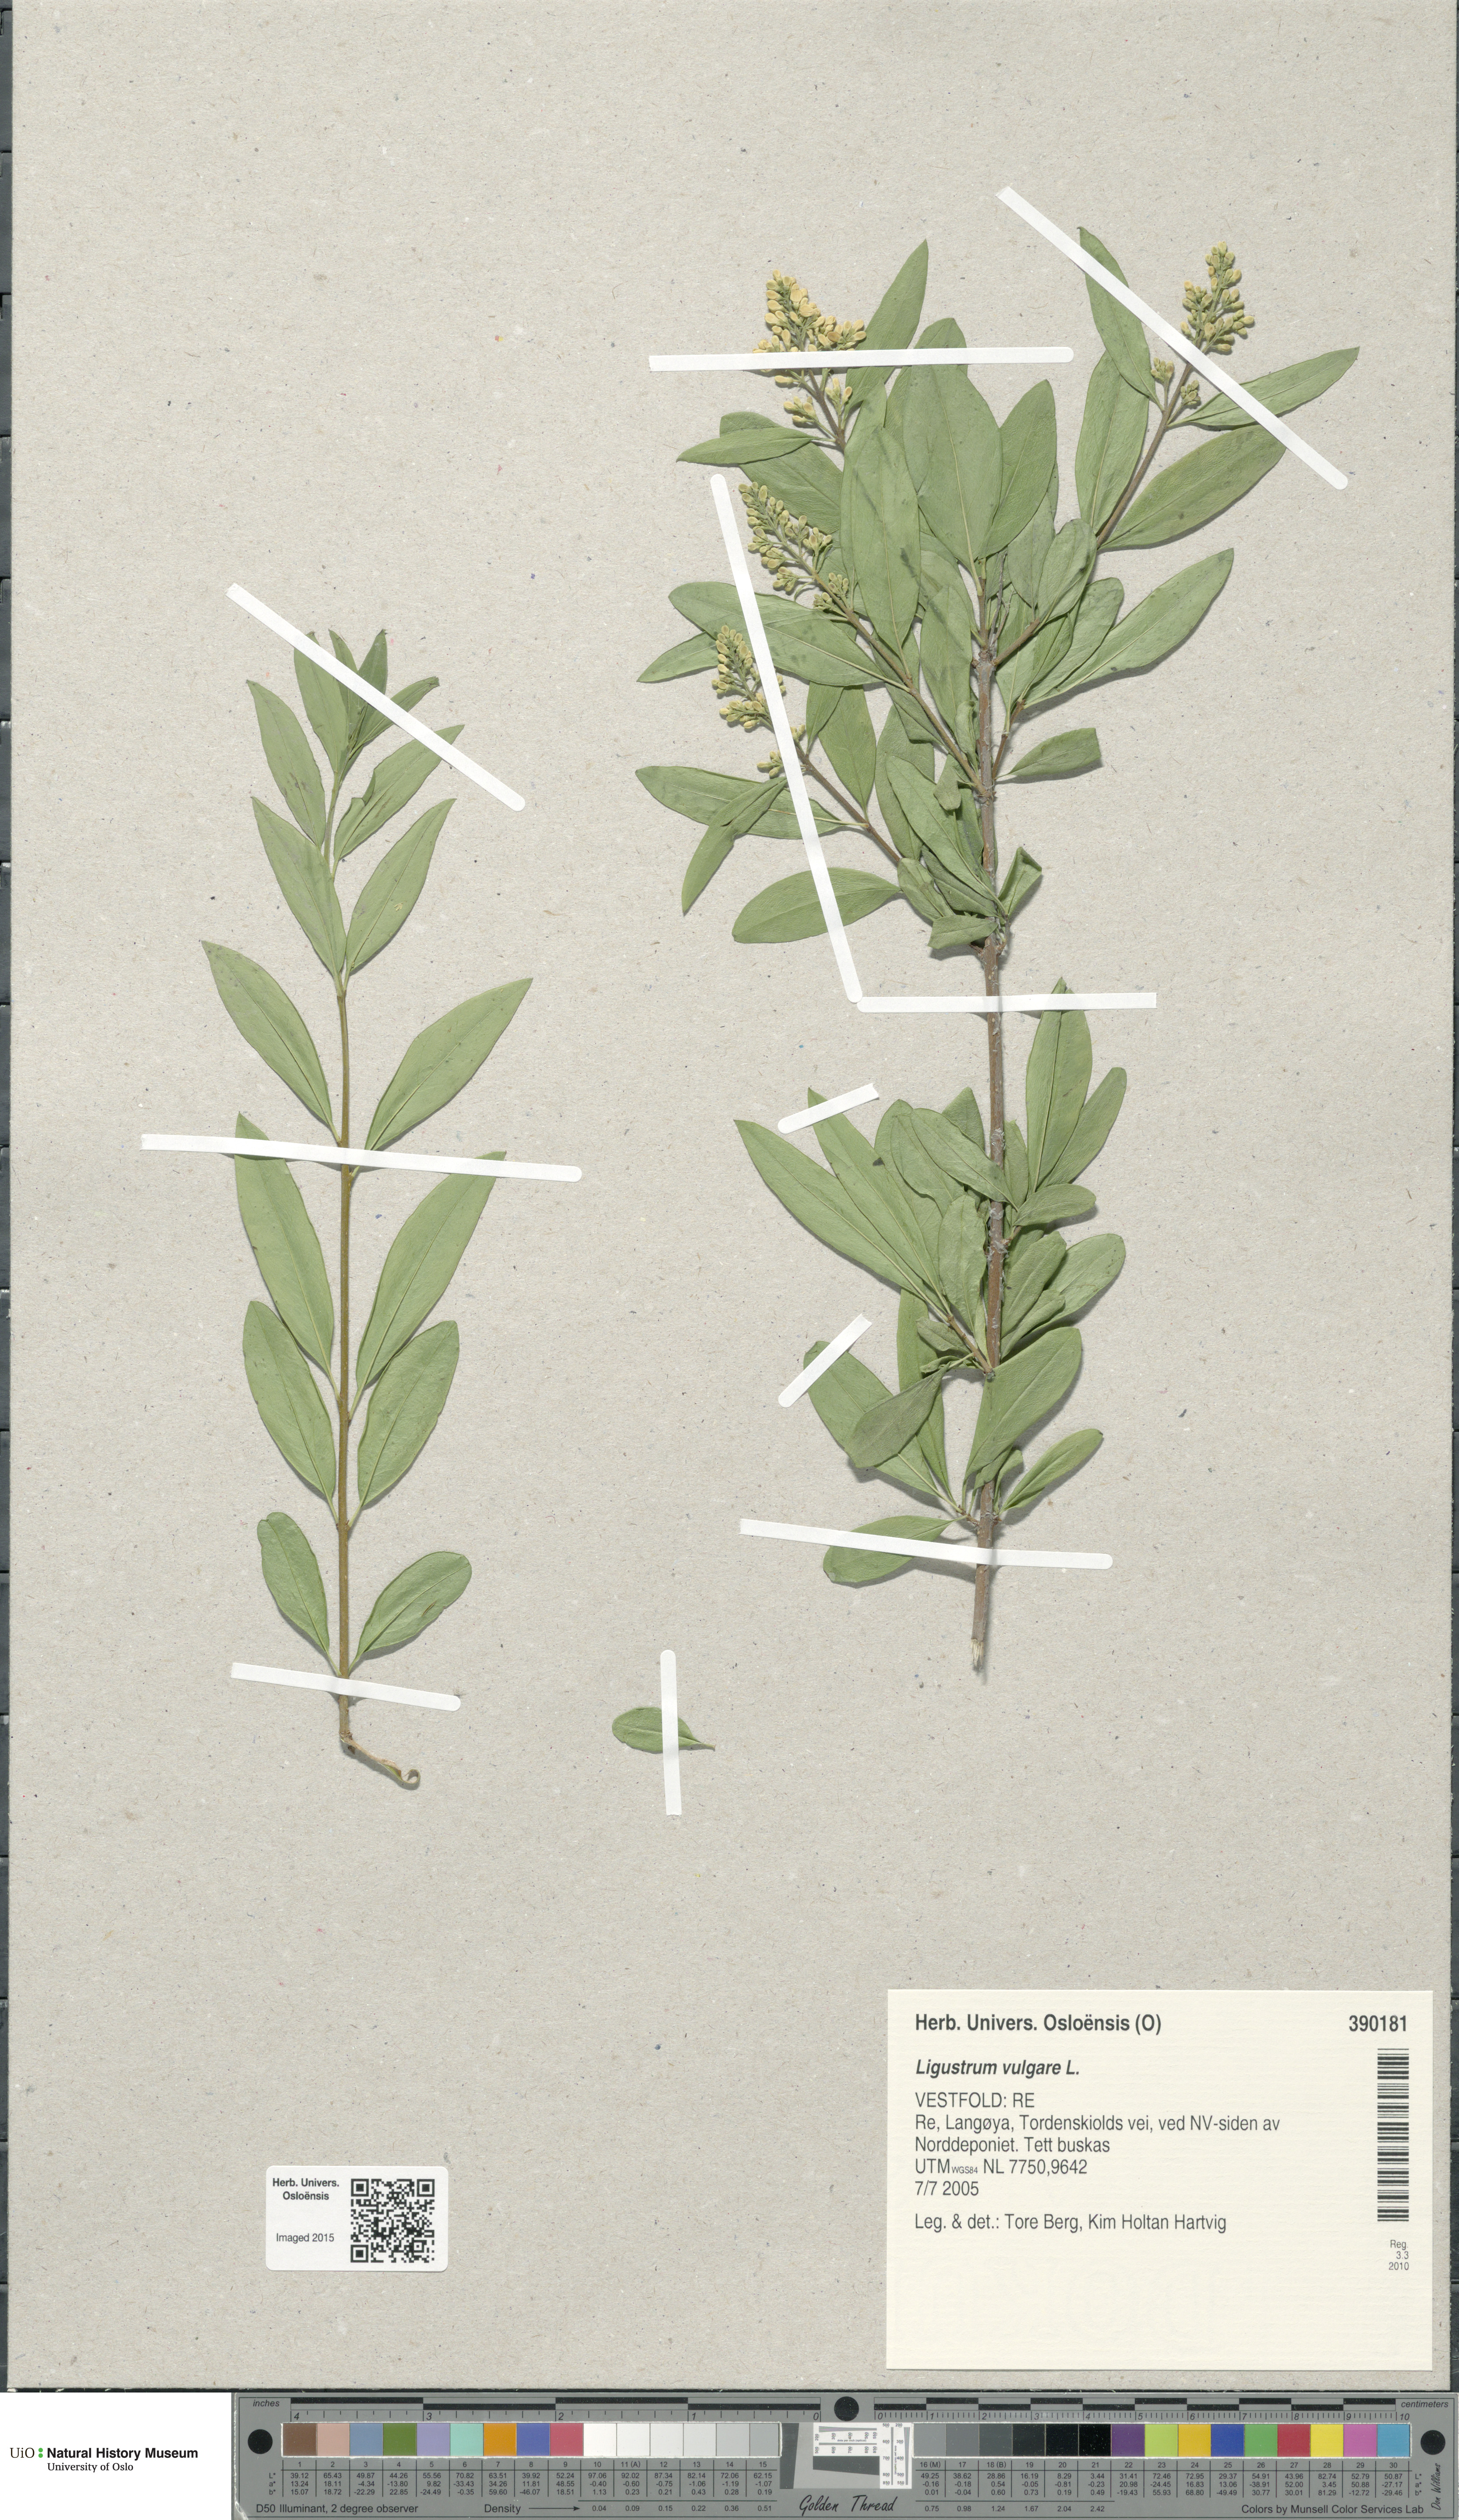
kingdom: Plantae
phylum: Tracheophyta
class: Magnoliopsida
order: Lamiales
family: Oleaceae
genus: Ligustrum
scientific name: Ligustrum vulgare
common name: Wild privet
